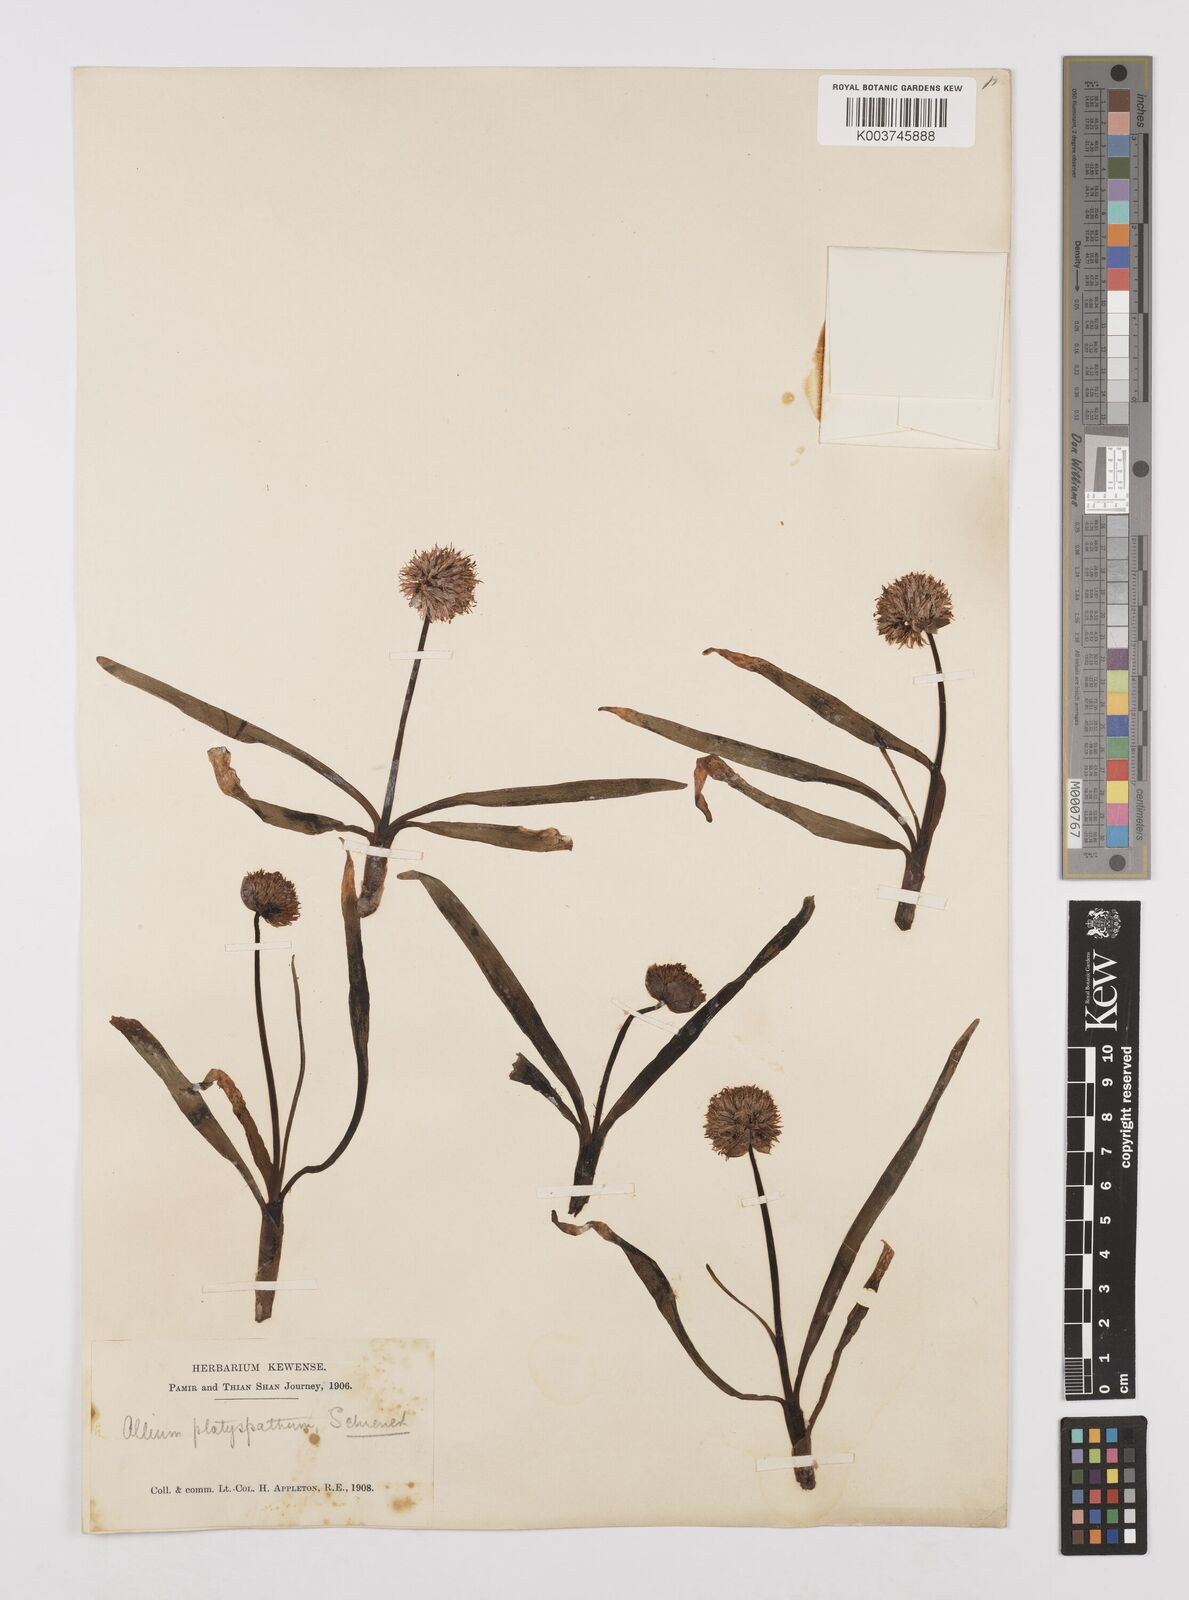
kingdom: Plantae
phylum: Tracheophyta
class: Liliopsida
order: Asparagales
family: Amaryllidaceae
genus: Allium
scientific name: Allium platyspathum
